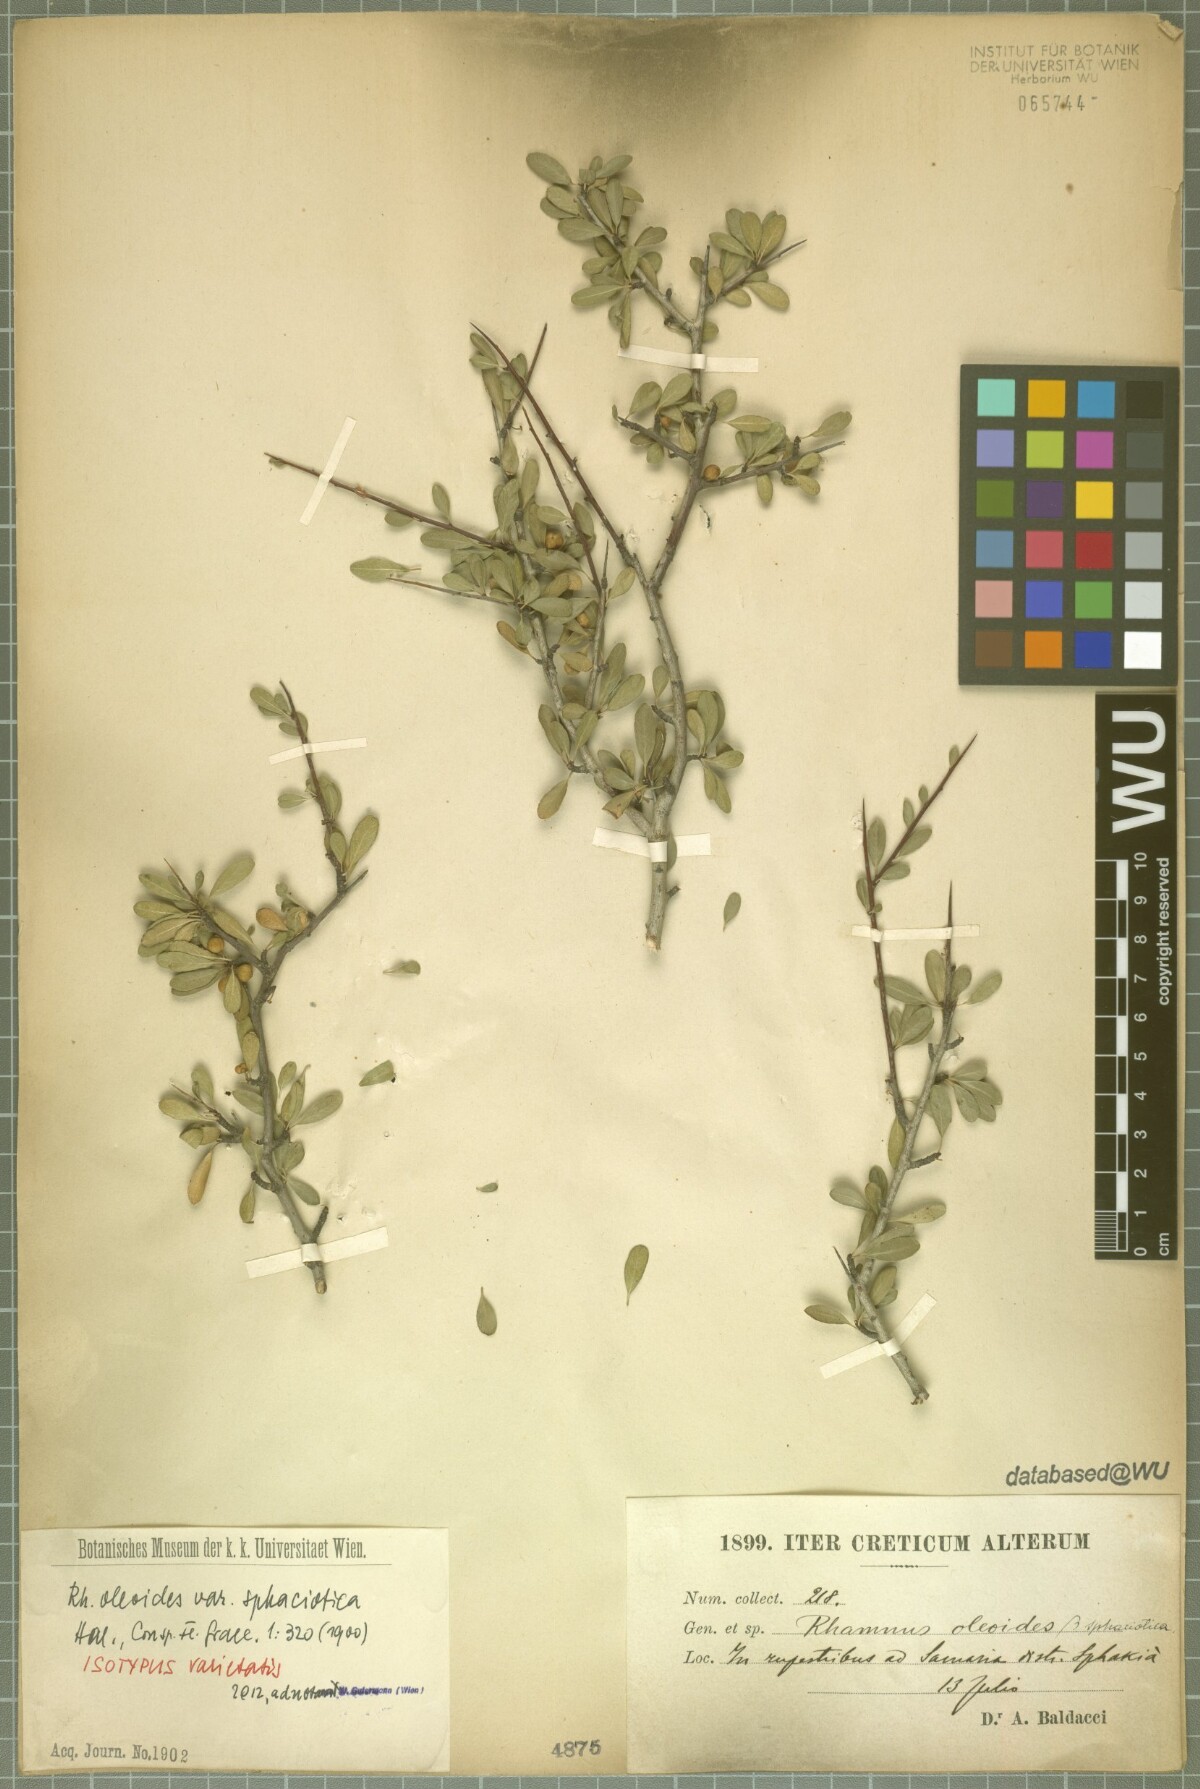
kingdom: Plantae
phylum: Tracheophyta
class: Magnoliopsida
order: Rosales
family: Rhamnaceae
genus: Rhamnus
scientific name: Rhamnus oleoides
